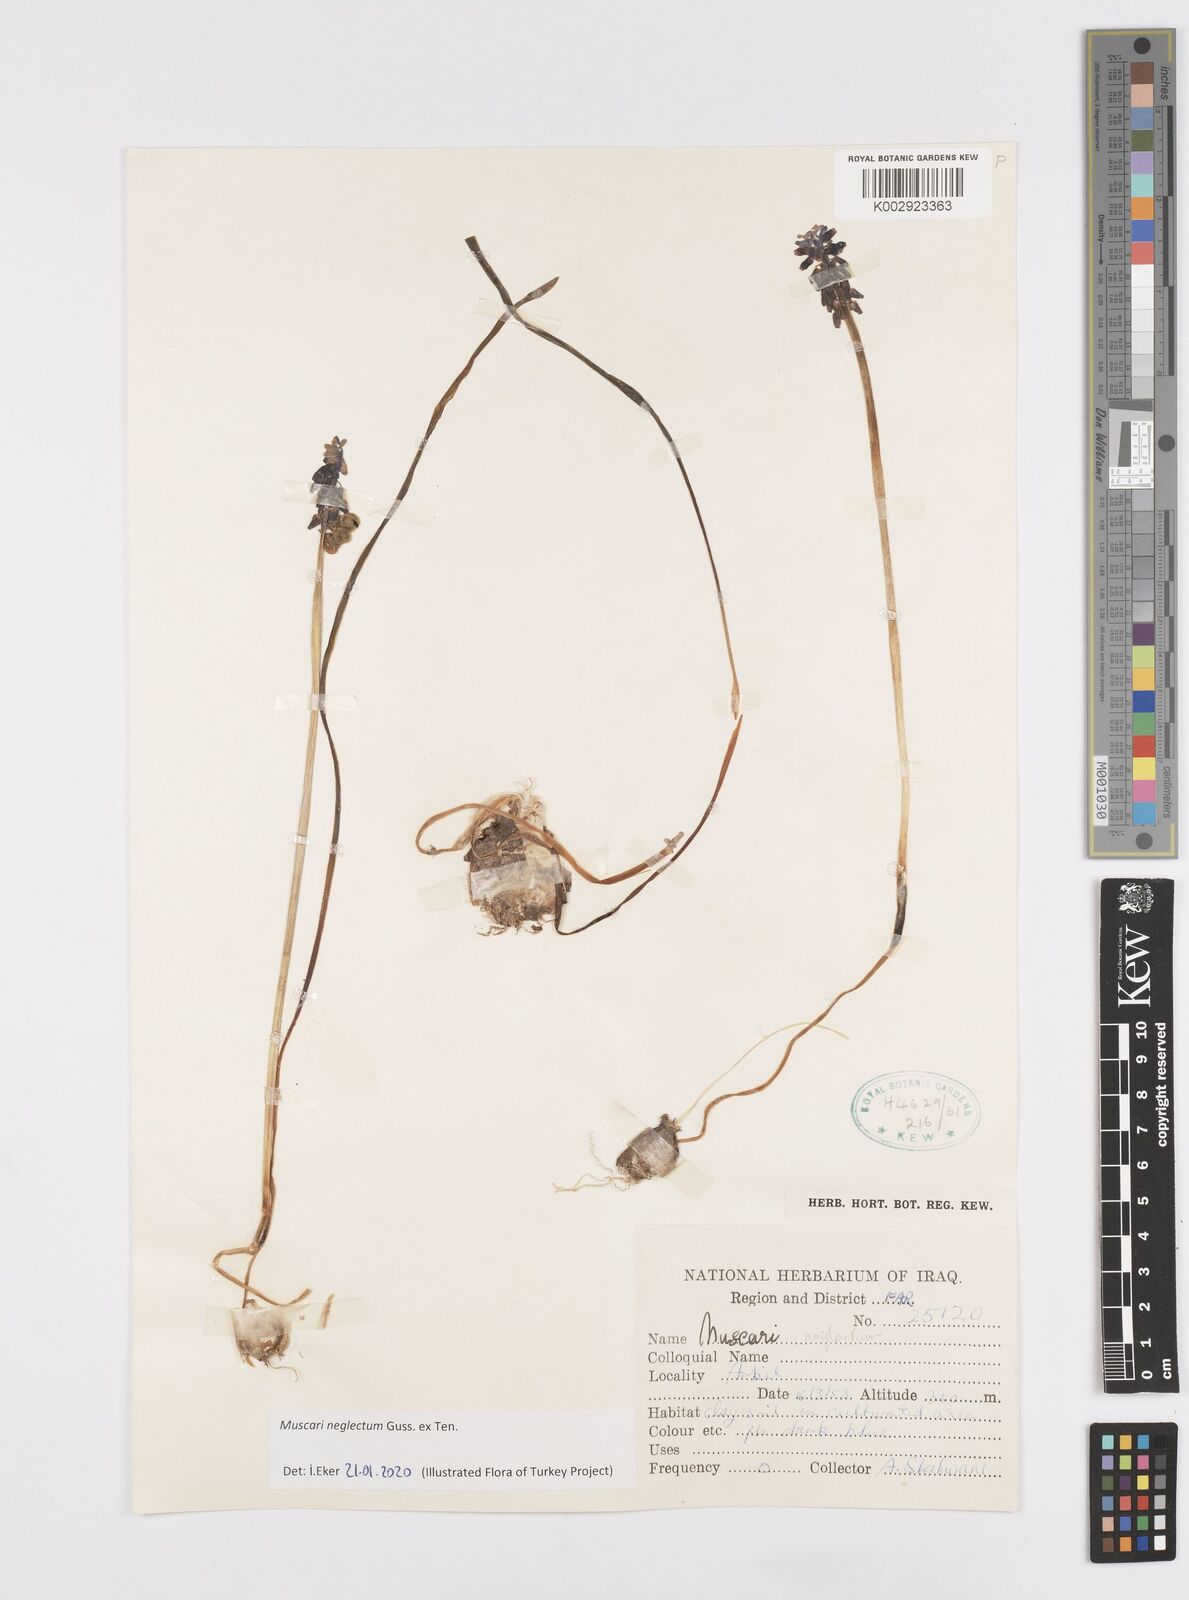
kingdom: Plantae
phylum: Tracheophyta
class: Liliopsida
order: Asparagales
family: Asparagaceae
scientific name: Asparagaceae
